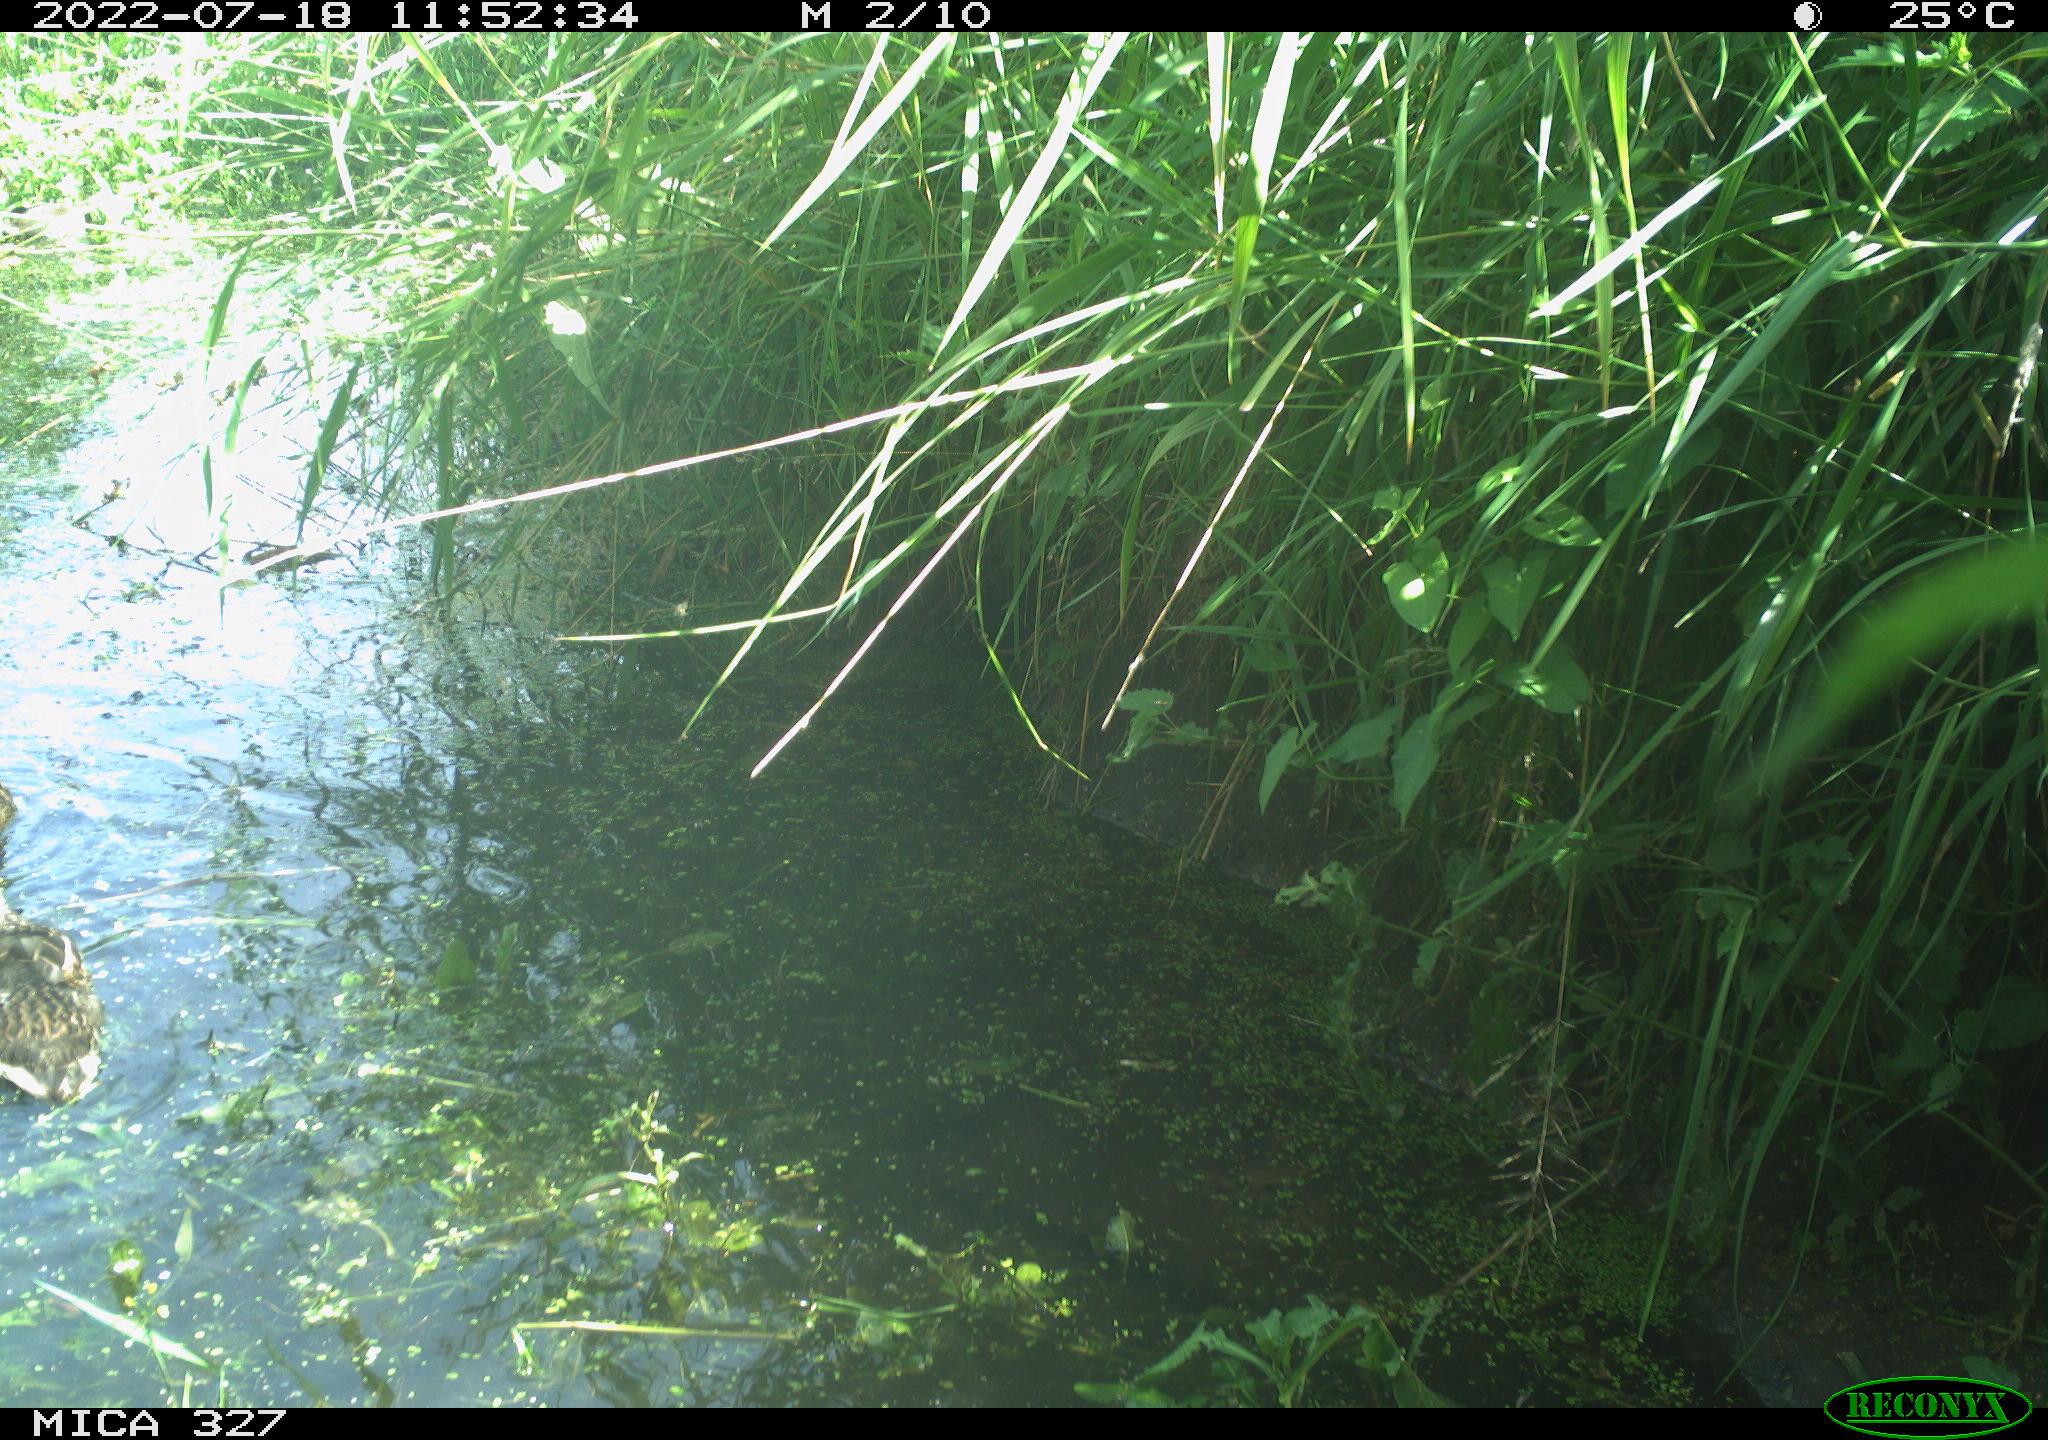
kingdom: Animalia
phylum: Chordata
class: Aves
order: Anseriformes
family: Anatidae
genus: Anas
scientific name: Anas
